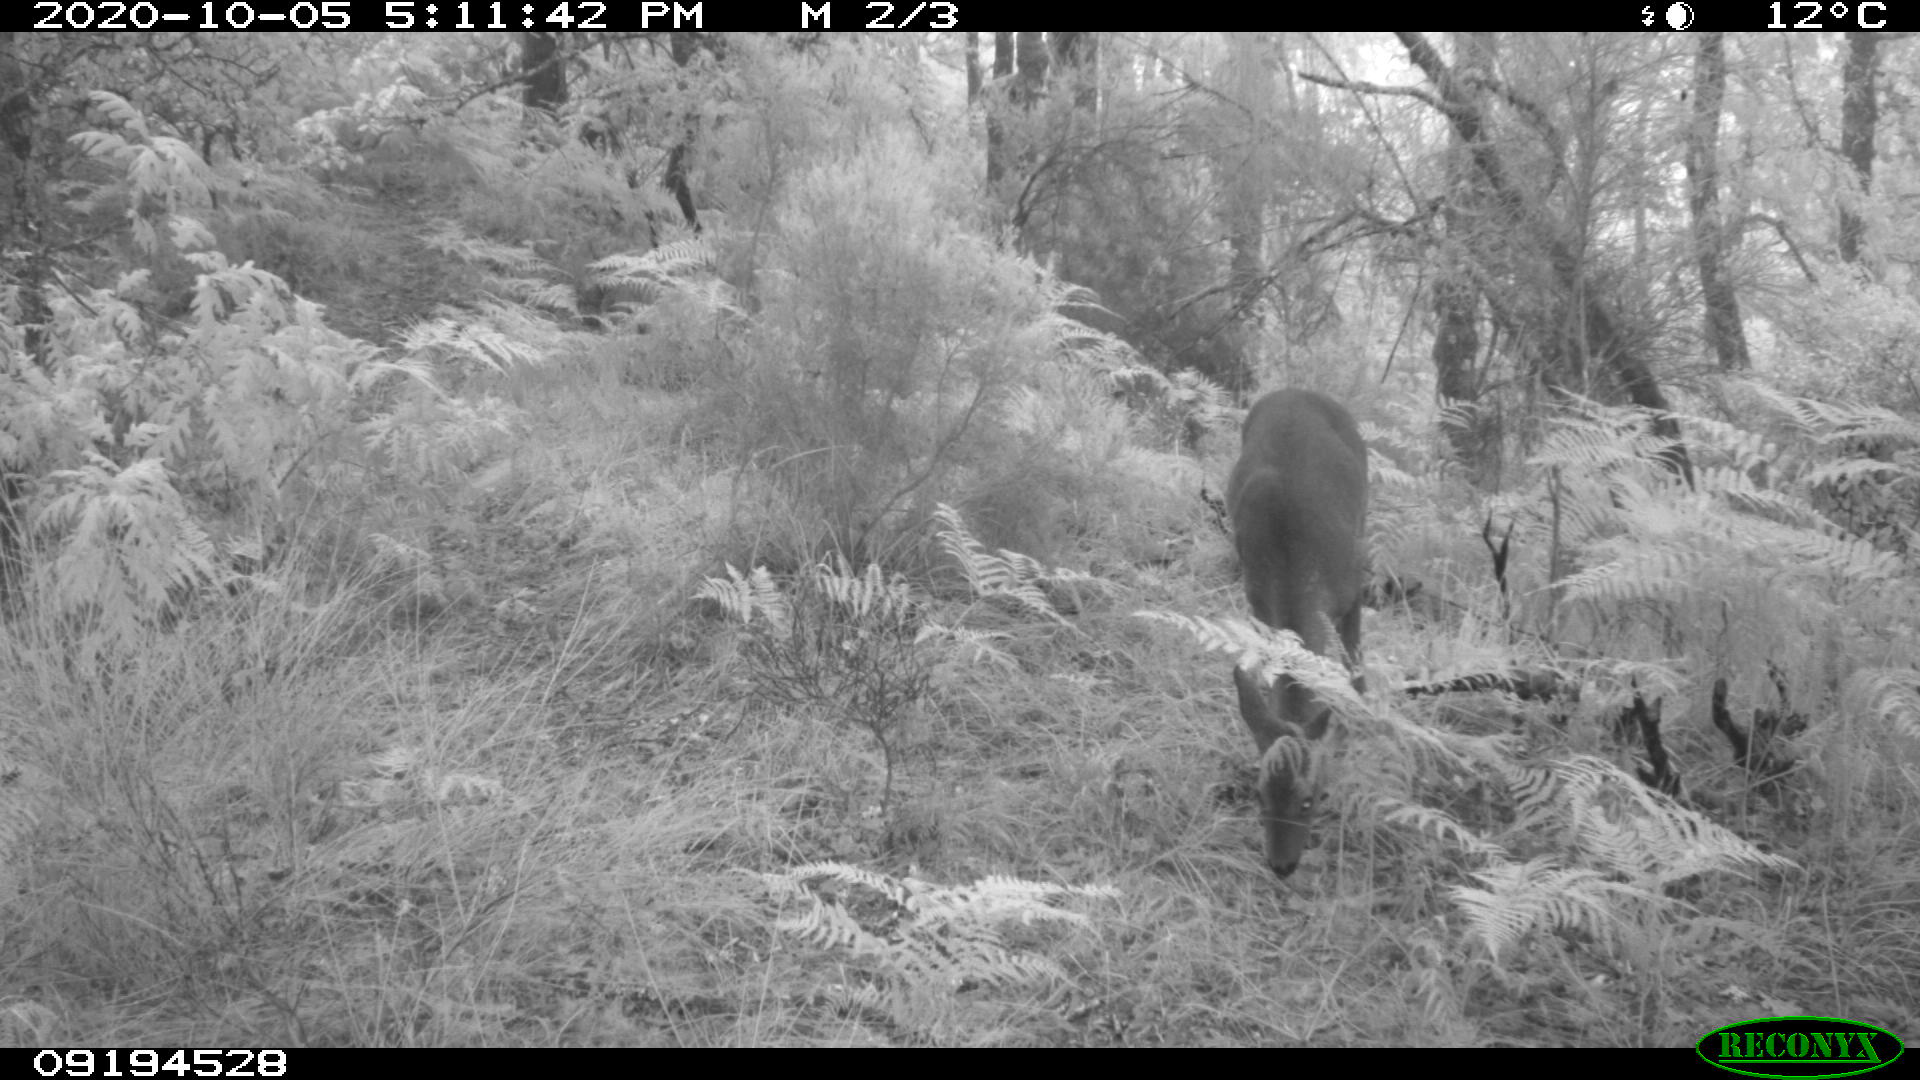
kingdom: Animalia
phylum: Chordata
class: Mammalia
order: Artiodactyla
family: Cervidae
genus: Capreolus
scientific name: Capreolus capreolus
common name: Western roe deer
